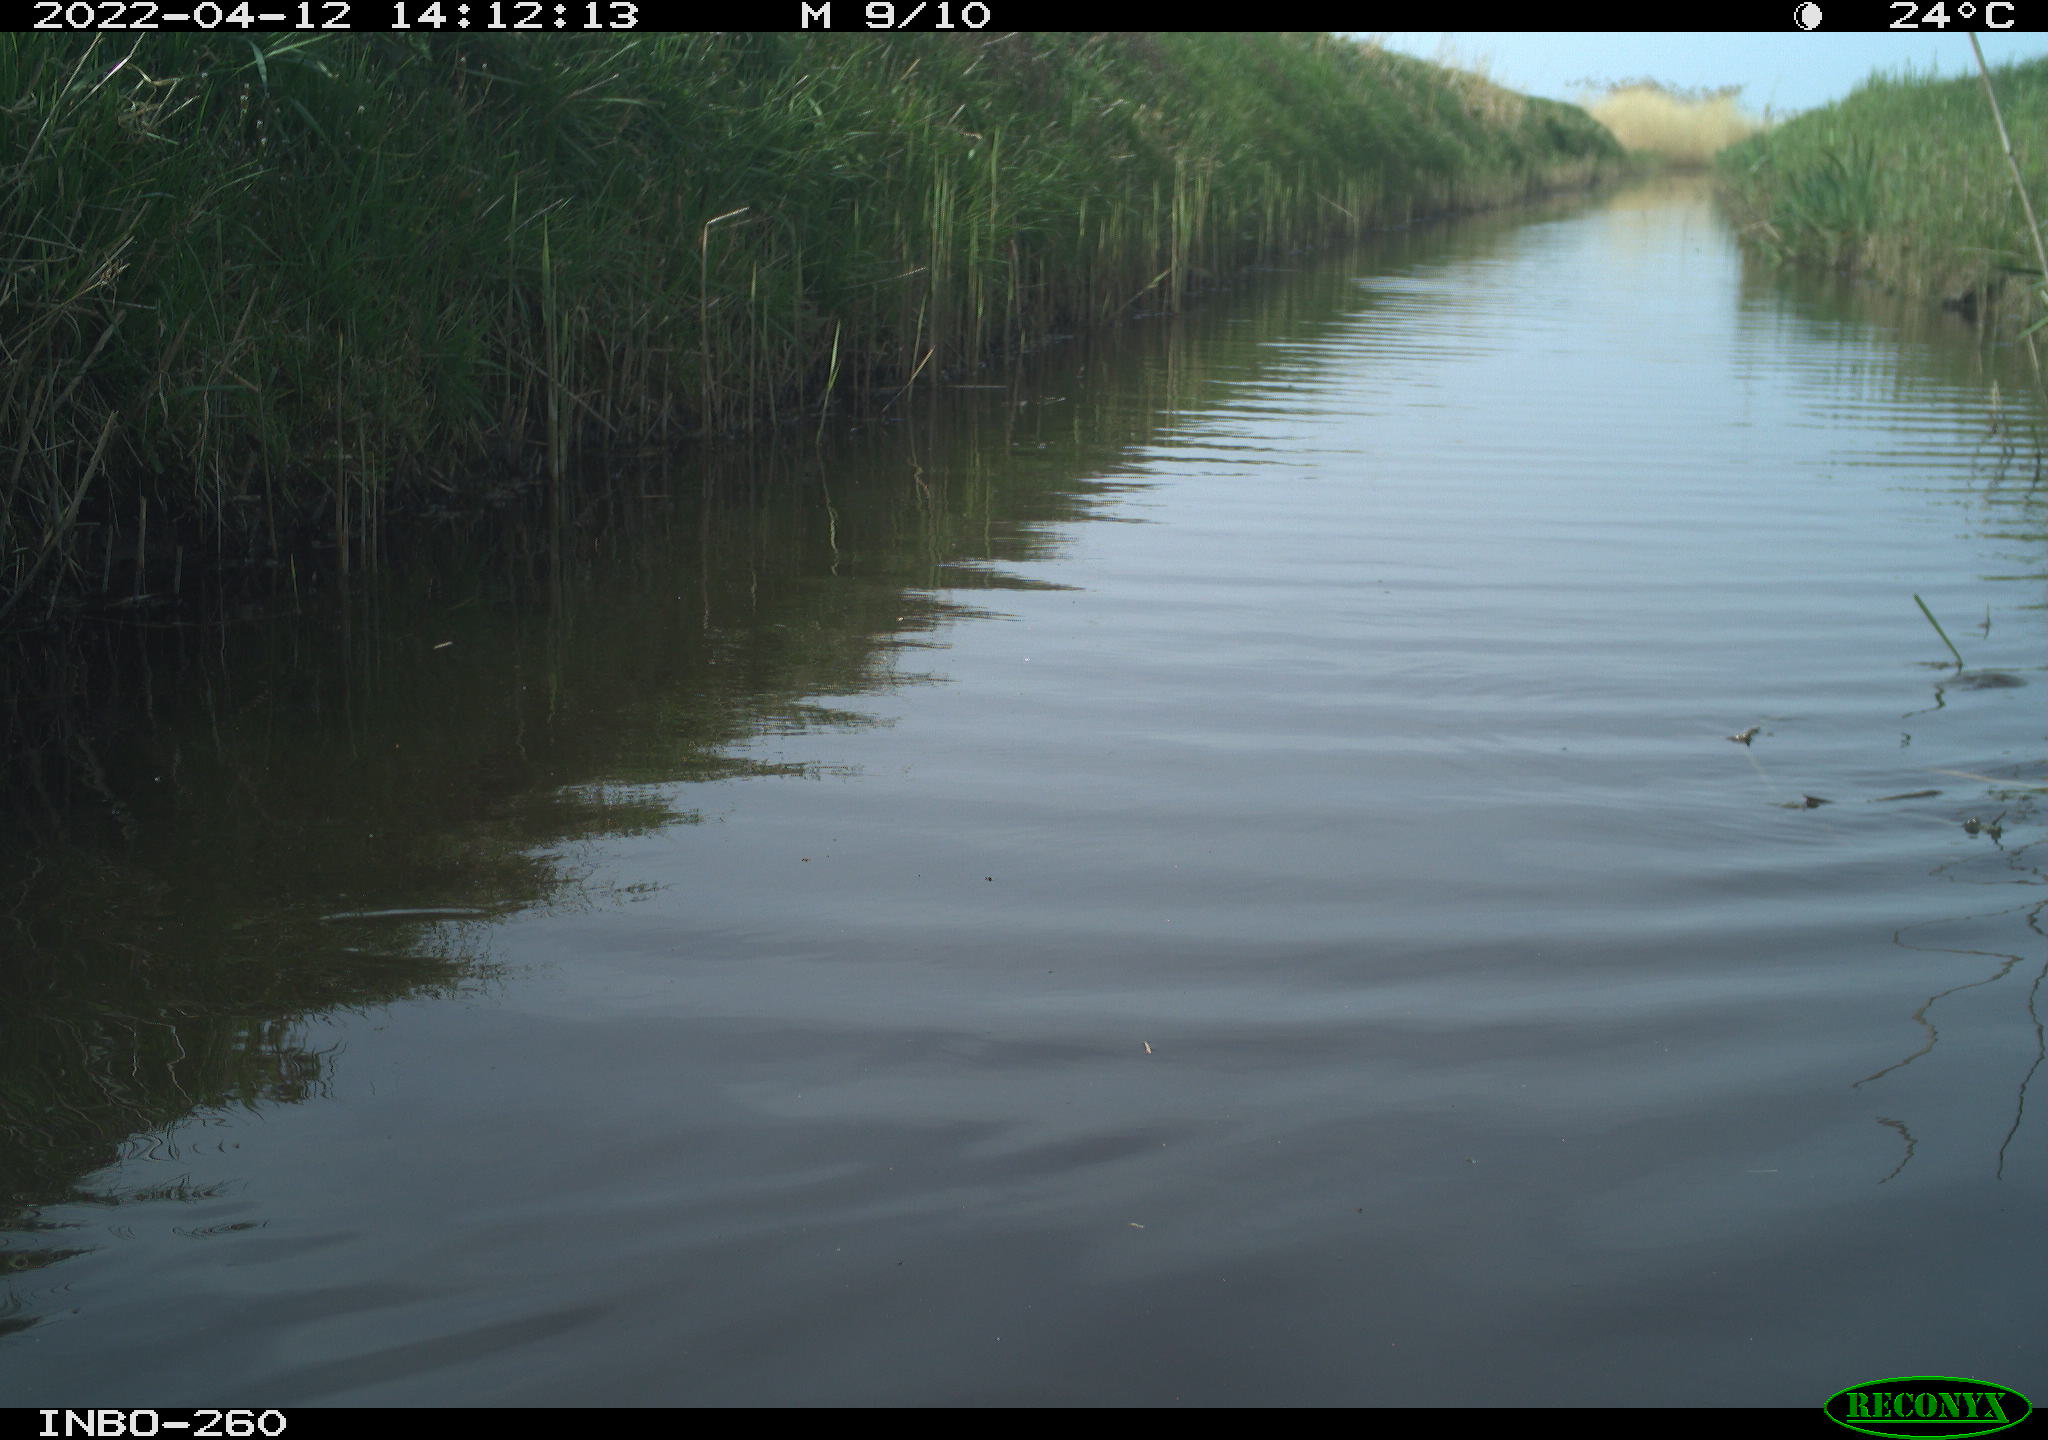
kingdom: Animalia
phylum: Chordata
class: Aves
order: Gruiformes
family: Rallidae
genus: Fulica
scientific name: Fulica atra
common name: Eurasian coot
